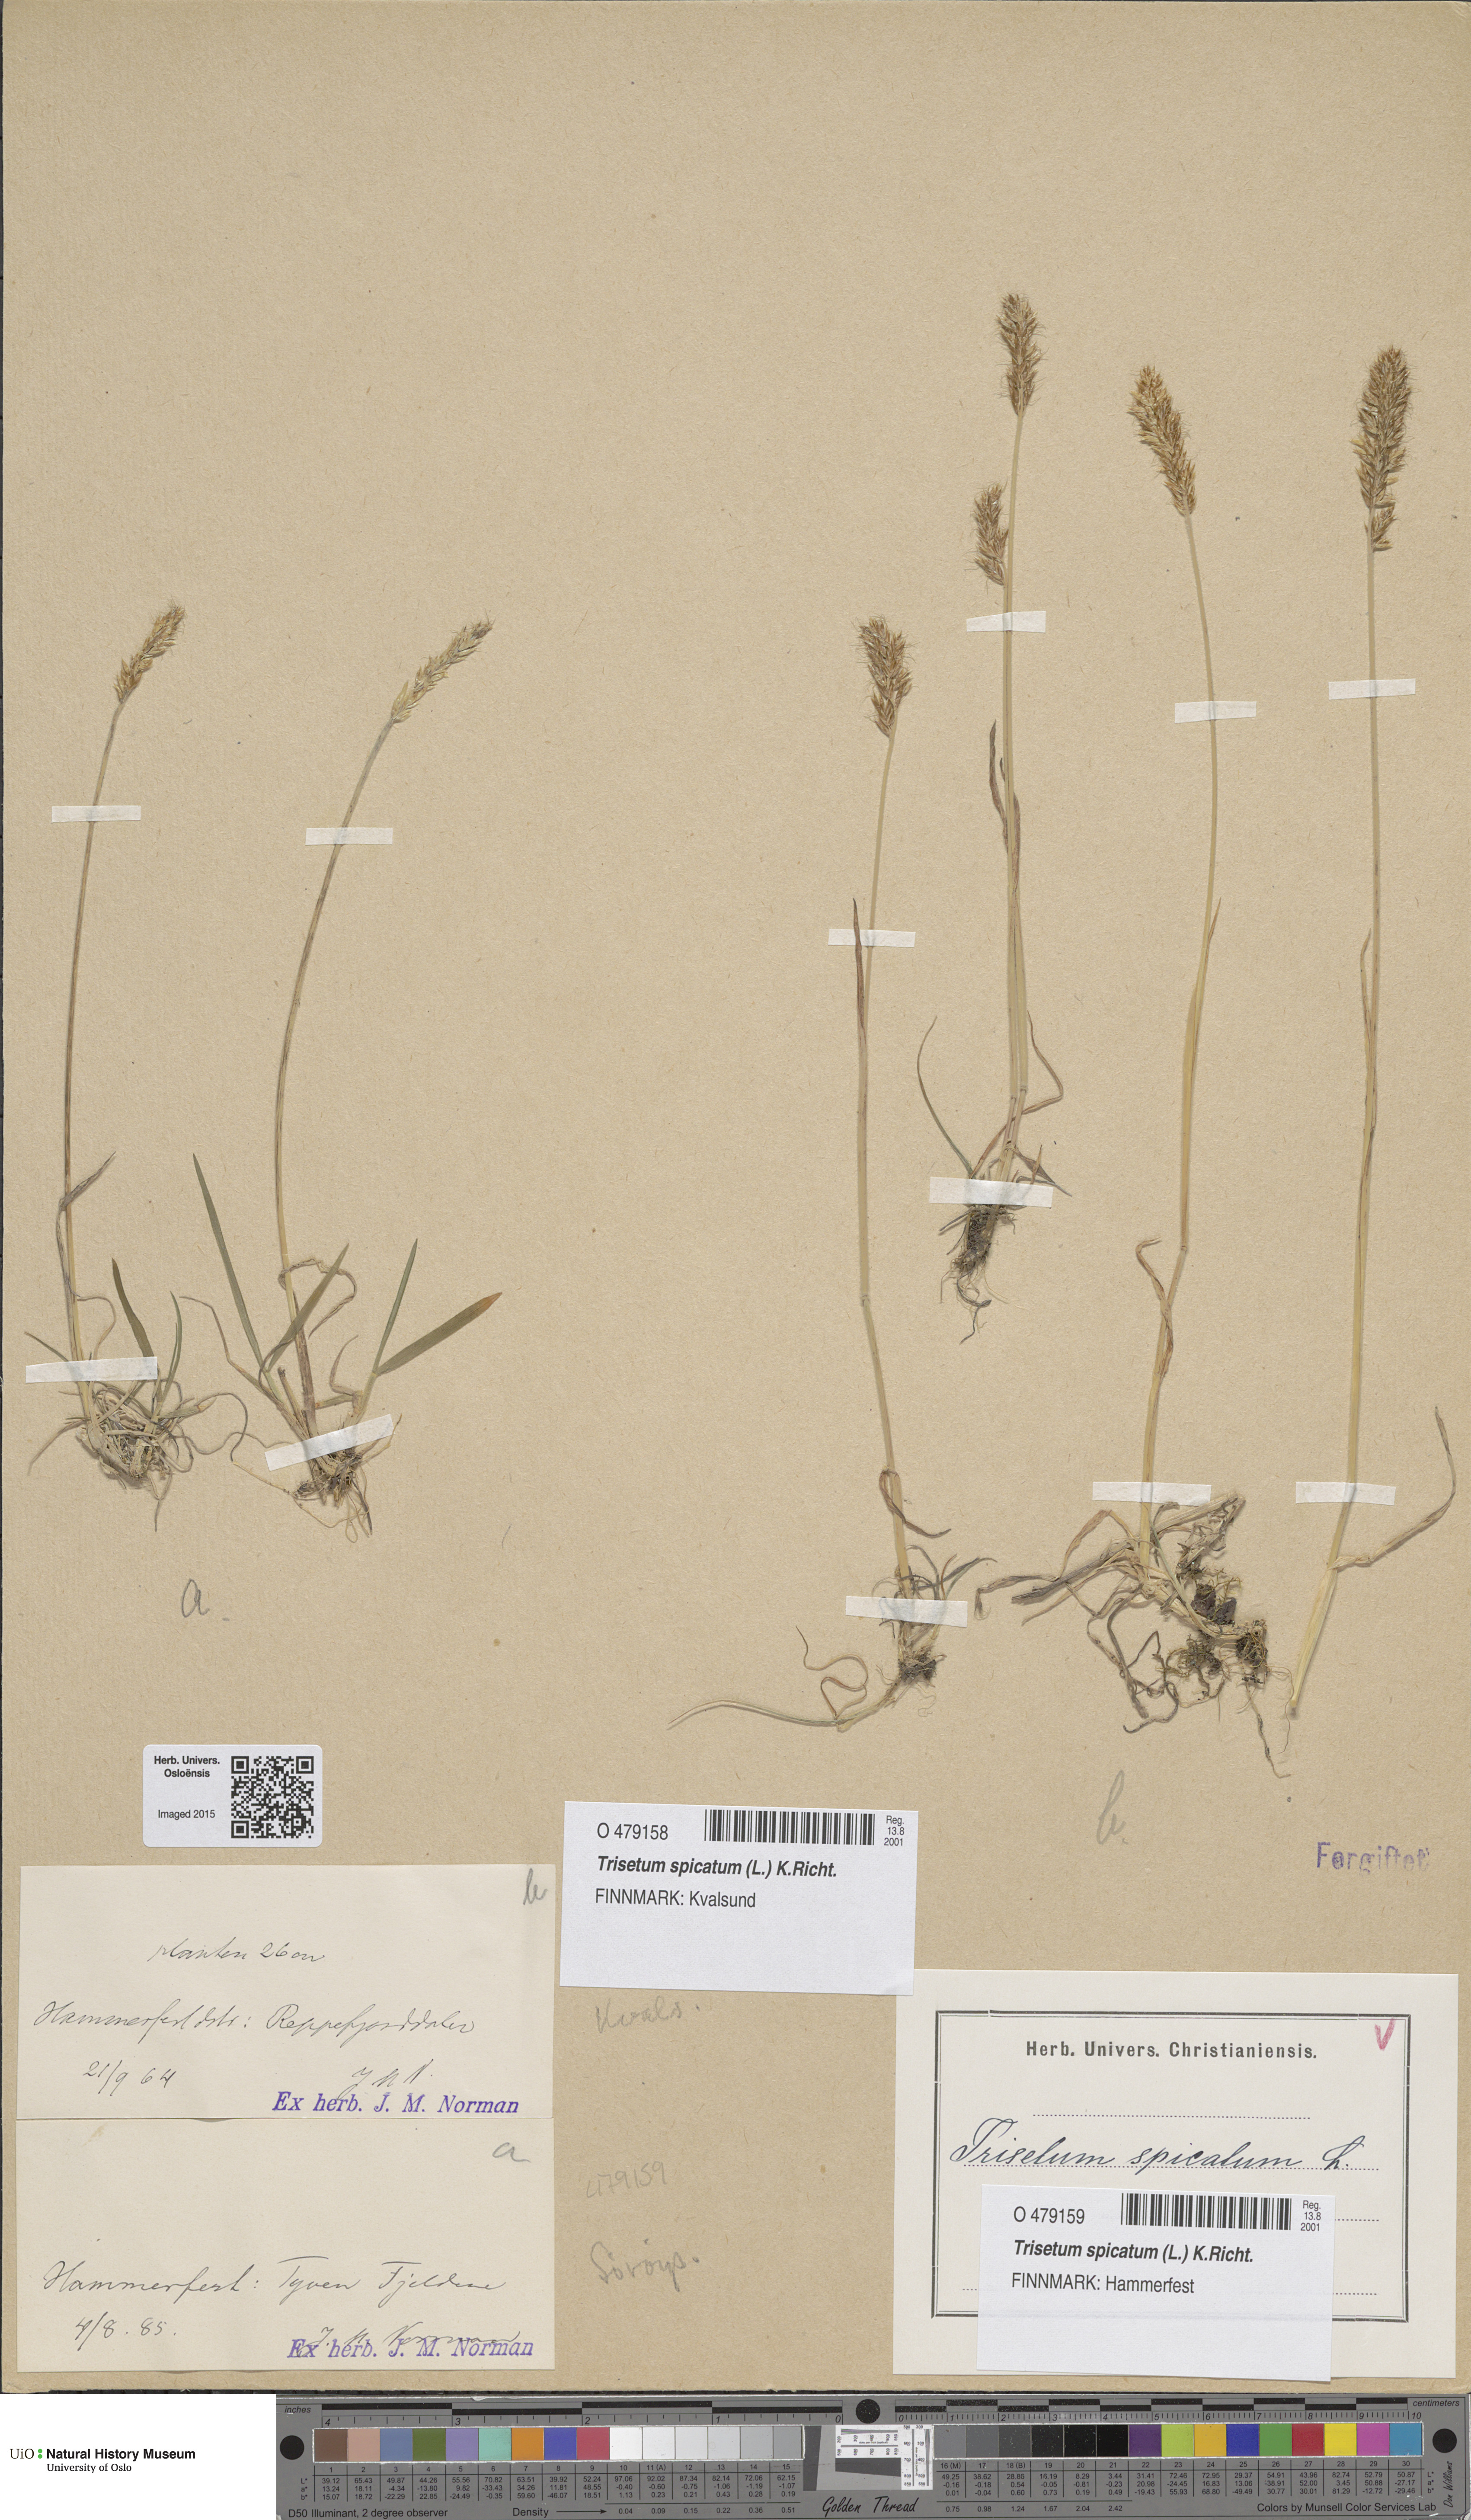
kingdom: Plantae
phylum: Tracheophyta
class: Liliopsida
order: Poales
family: Poaceae
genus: Koeleria
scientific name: Koeleria spicata
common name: Mountain trisetum
